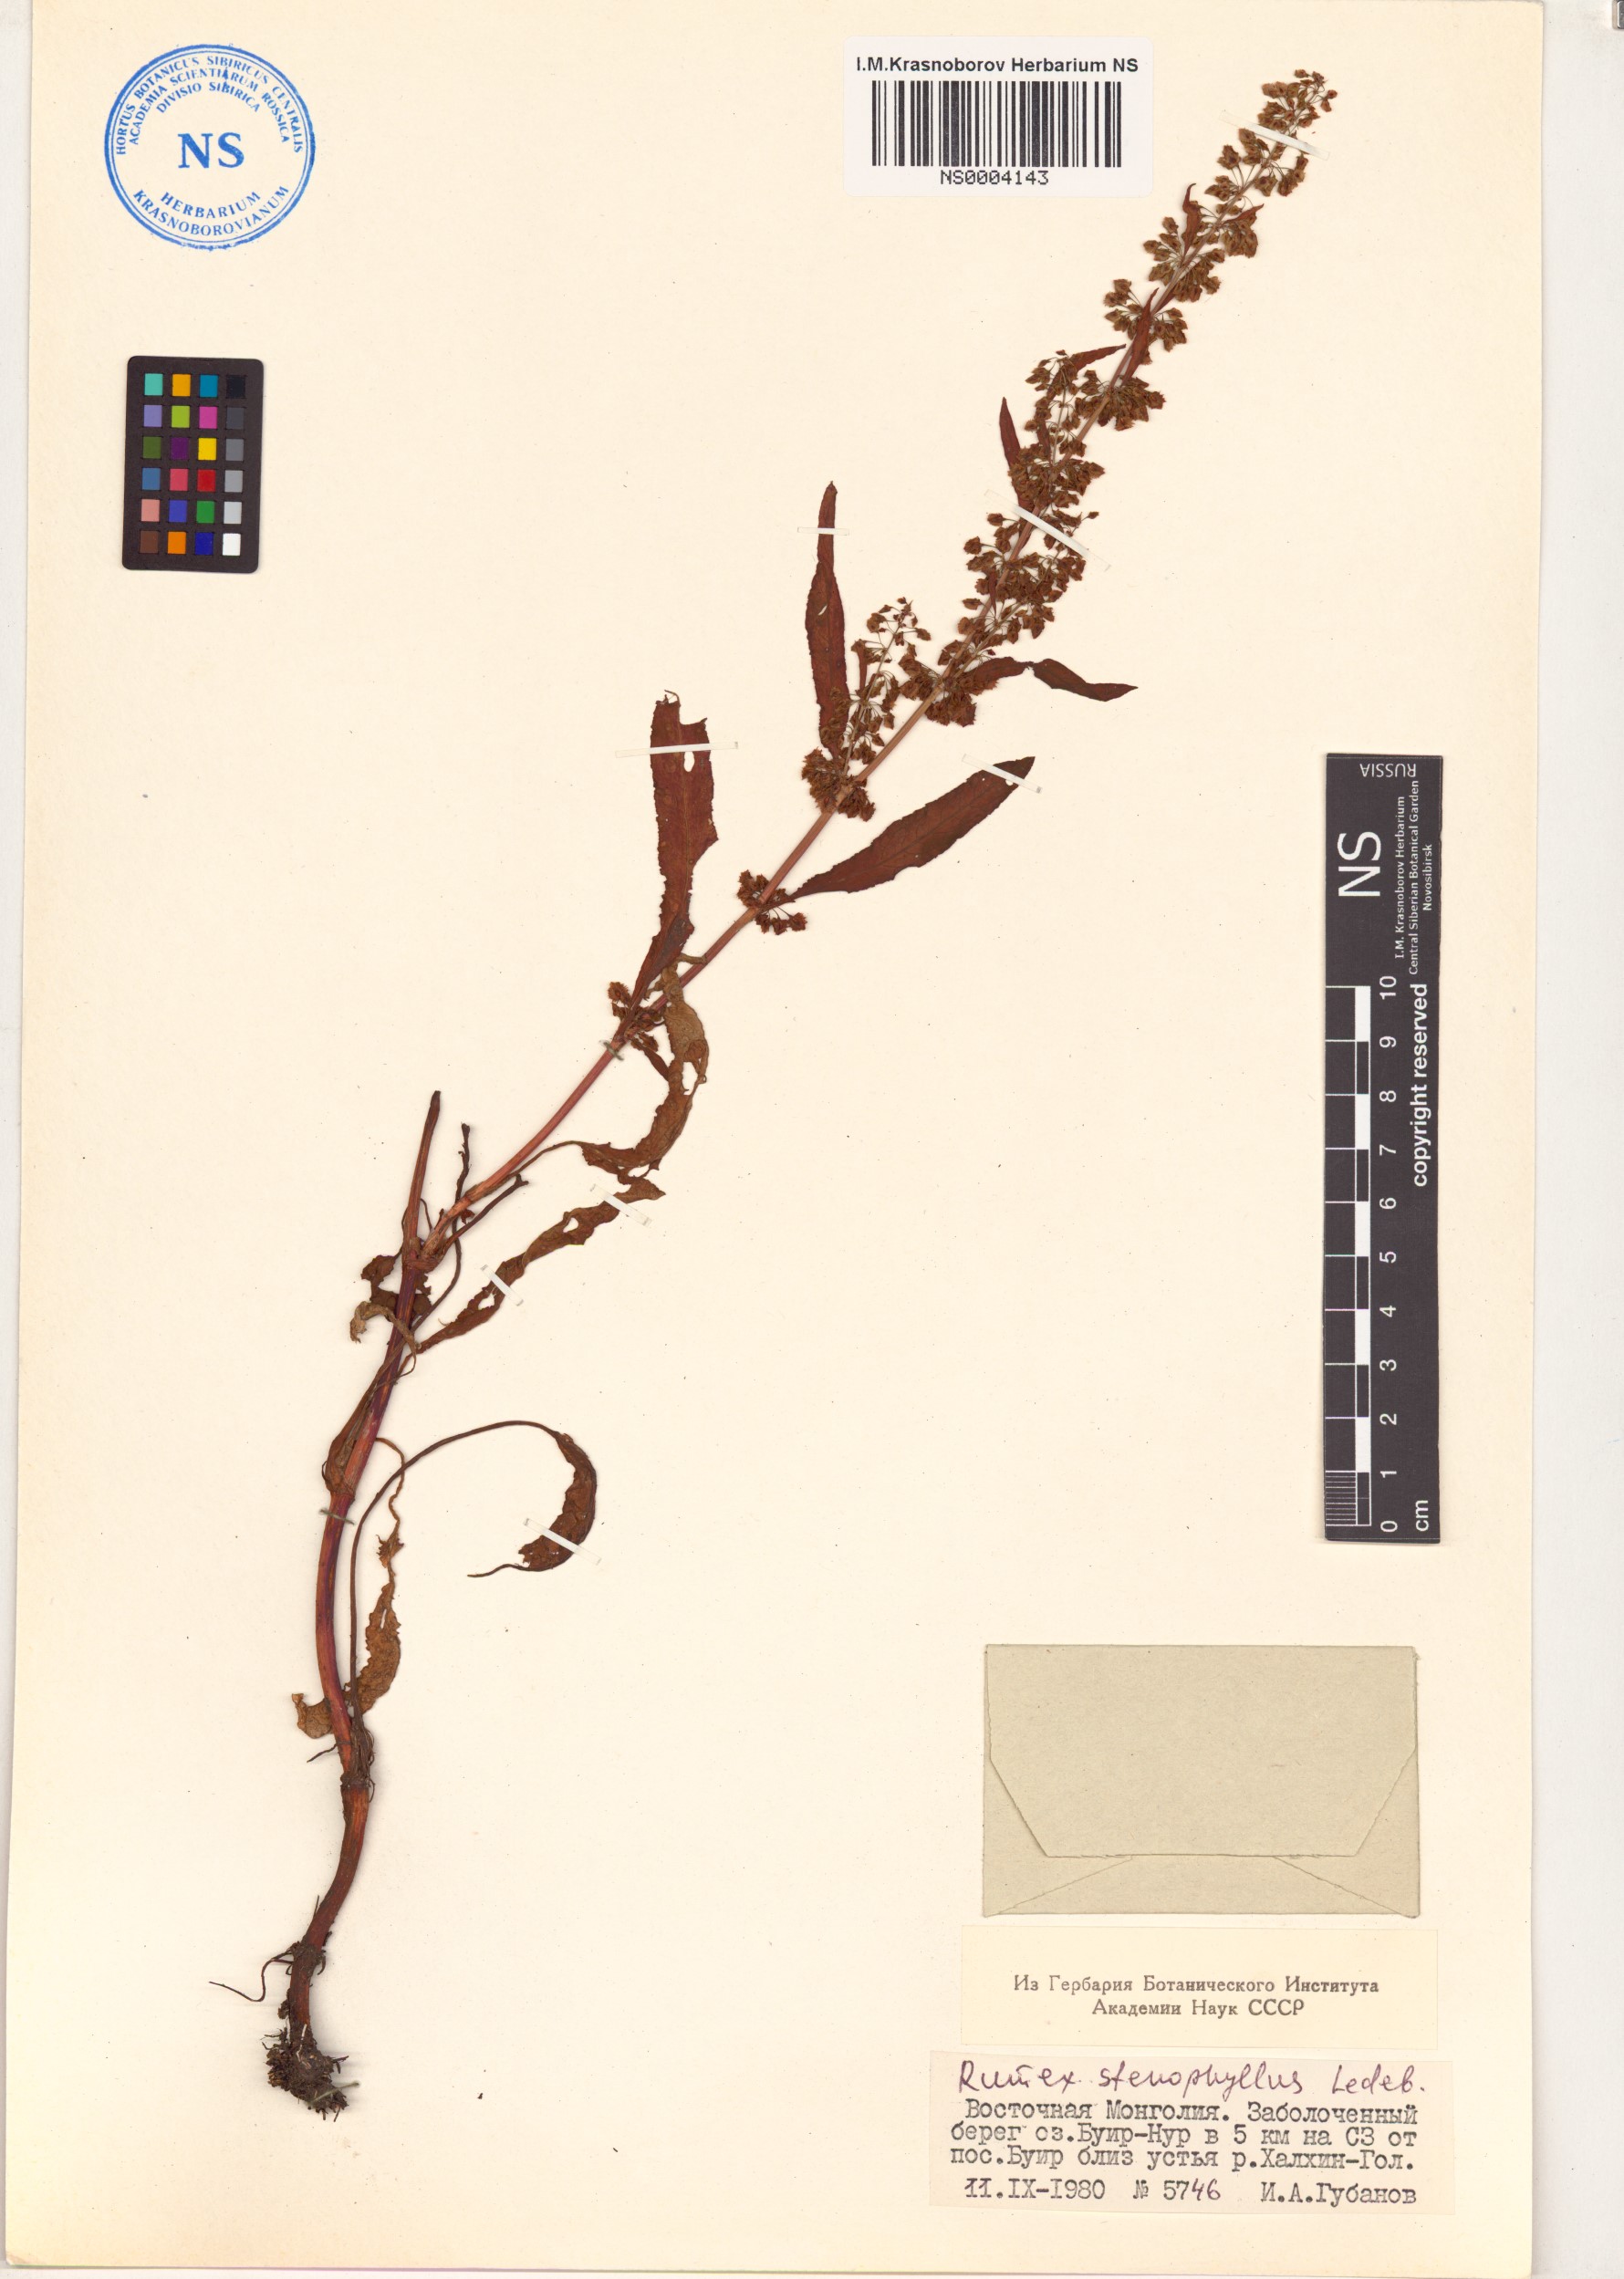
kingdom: Plantae
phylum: Tracheophyta
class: Magnoliopsida
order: Caryophyllales
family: Polygonaceae
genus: Rumex
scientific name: Rumex stenophyllus
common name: Narrowleaf dock
